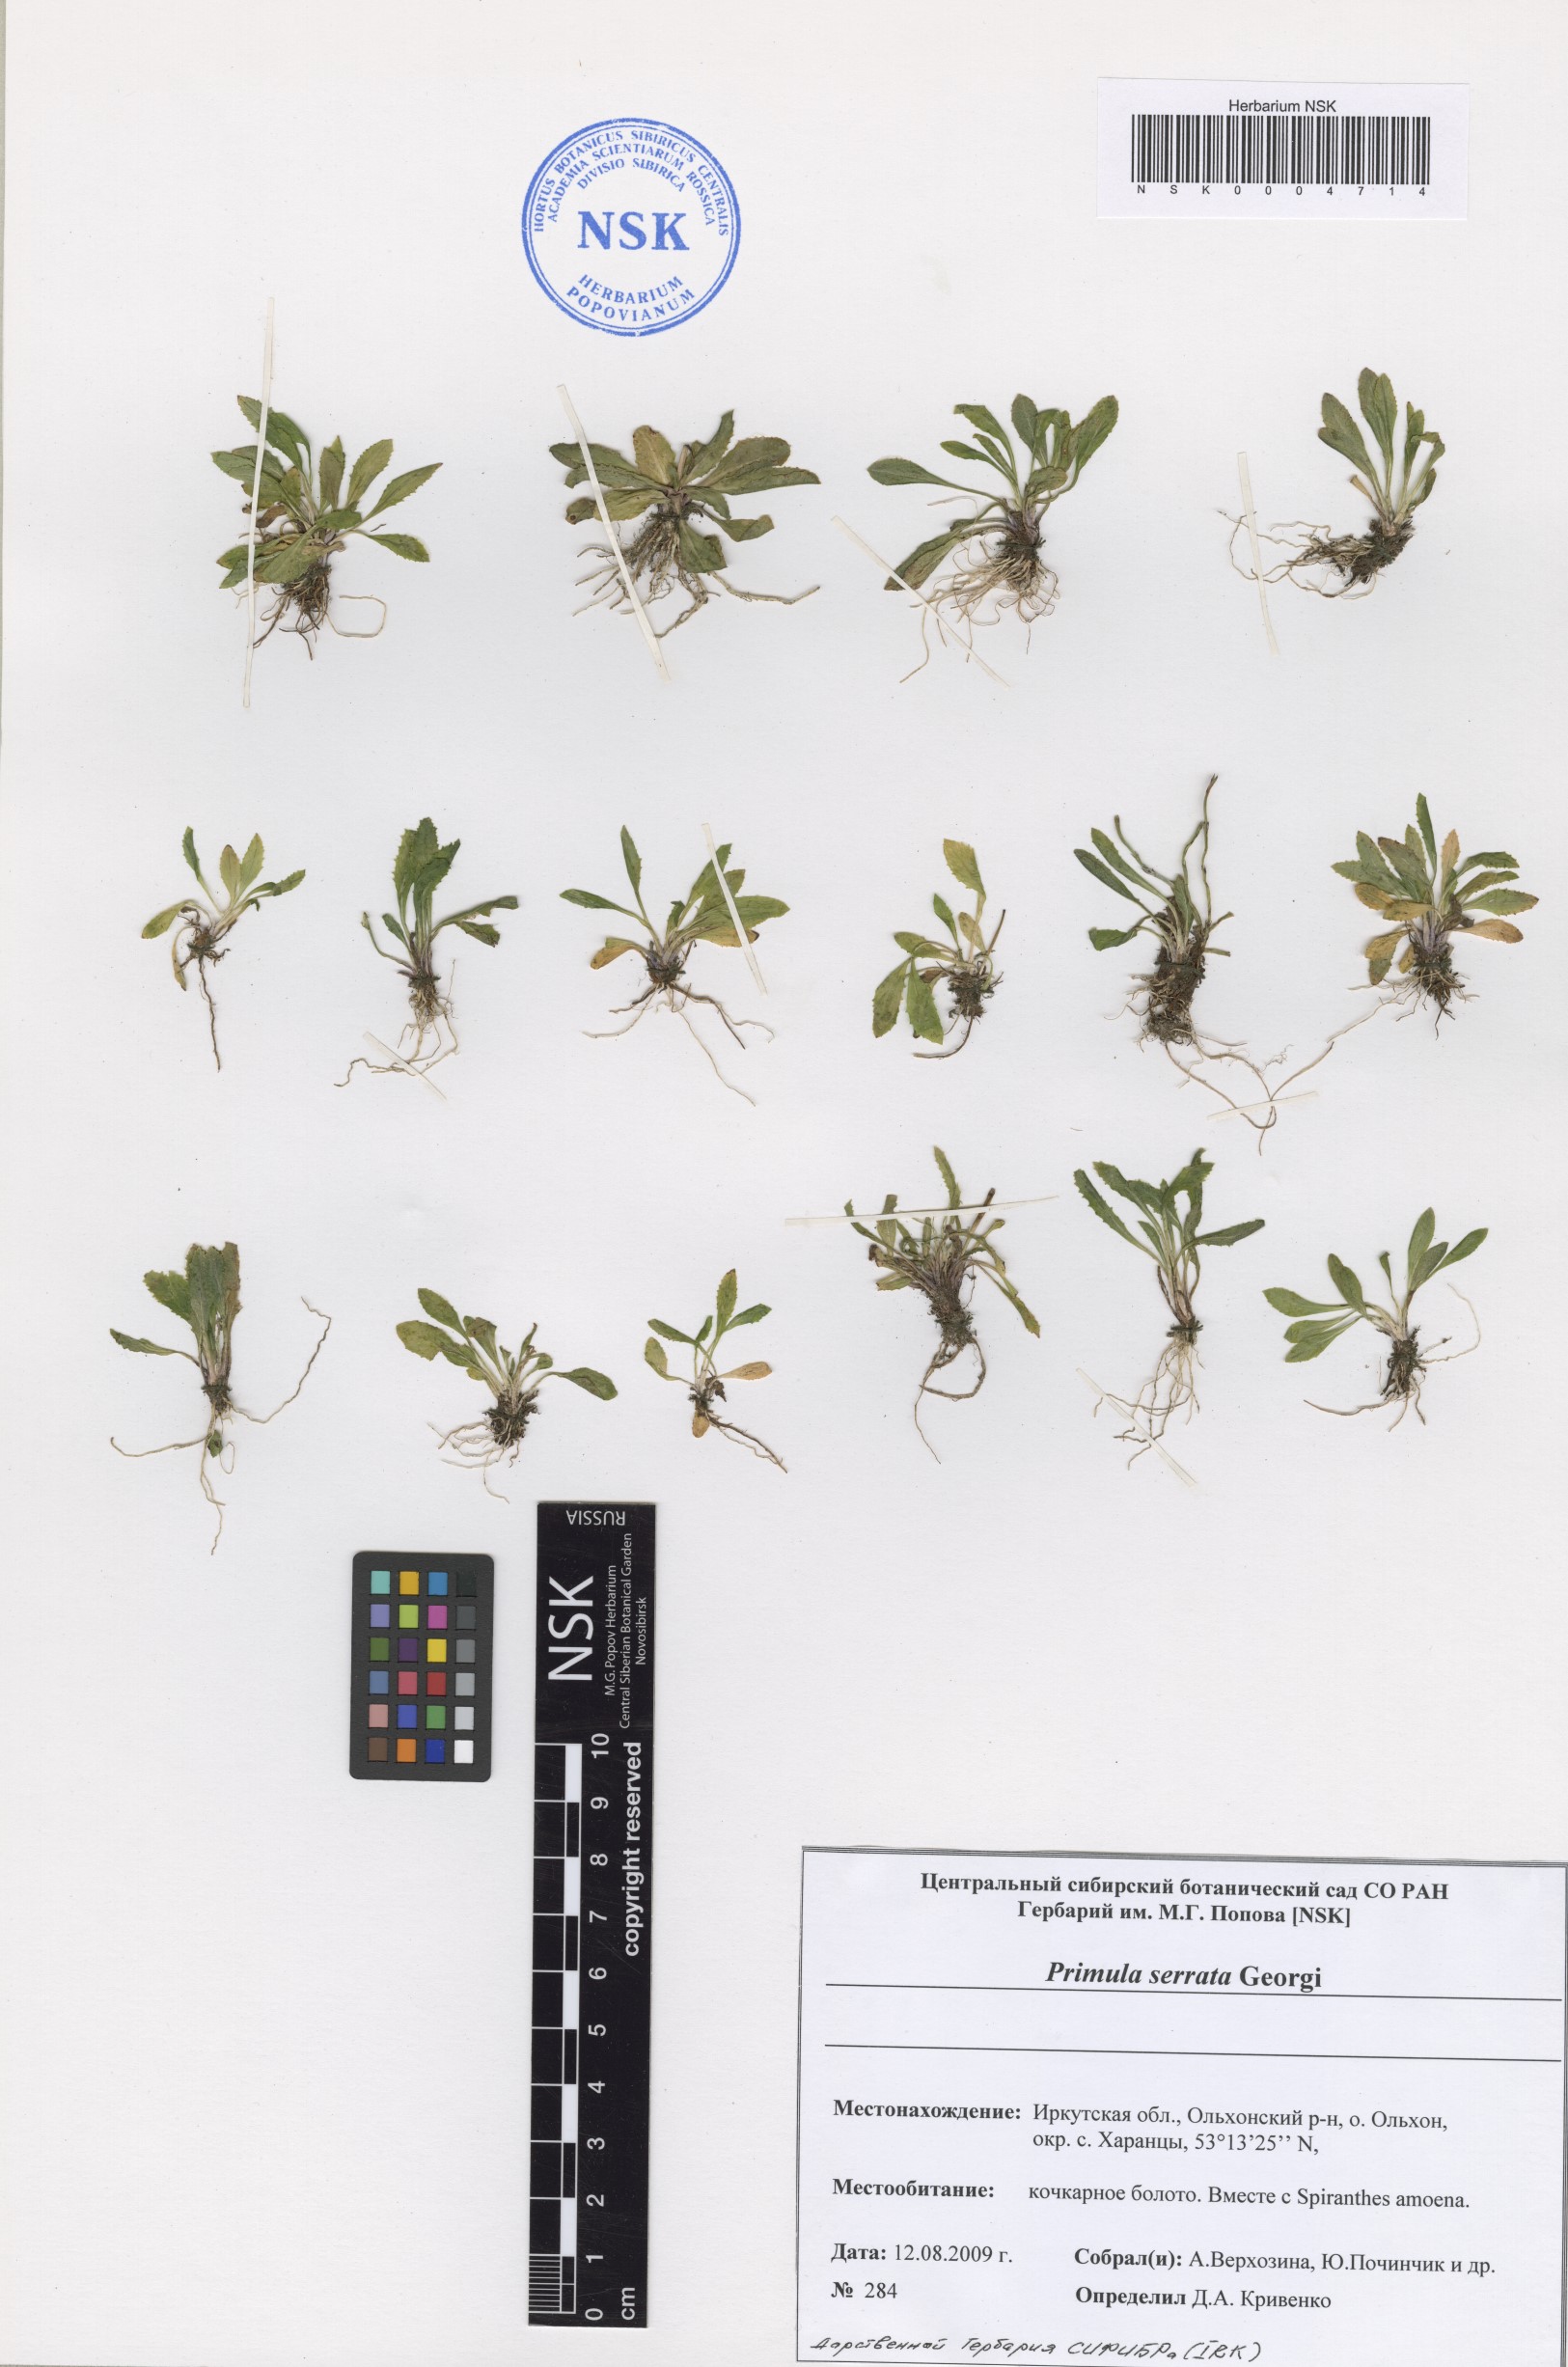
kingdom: Plantae
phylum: Tracheophyta
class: Magnoliopsida
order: Ericales
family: Primulaceae
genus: Primula
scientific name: Primula serrata
